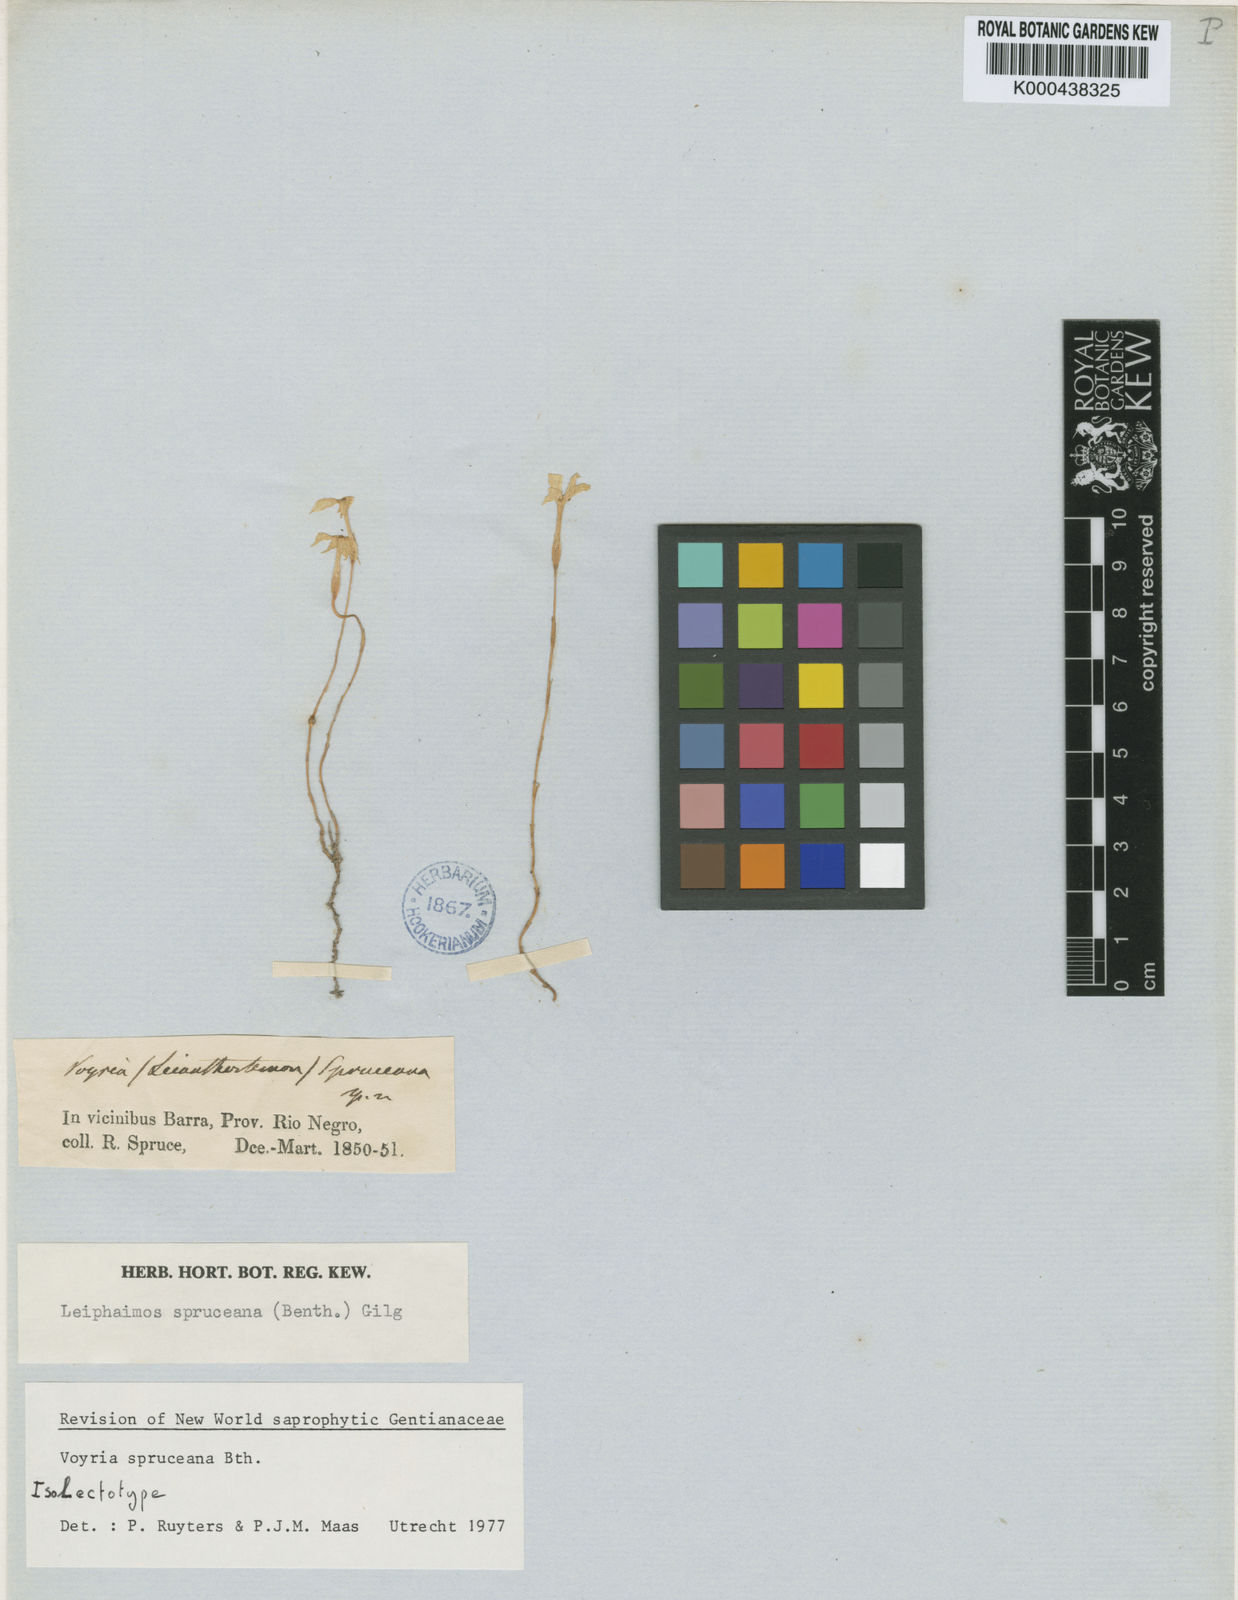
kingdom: Plantae
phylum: Tracheophyta
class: Magnoliopsida
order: Gentianales
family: Gentianaceae
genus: Voyria
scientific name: Voyria spruceana
